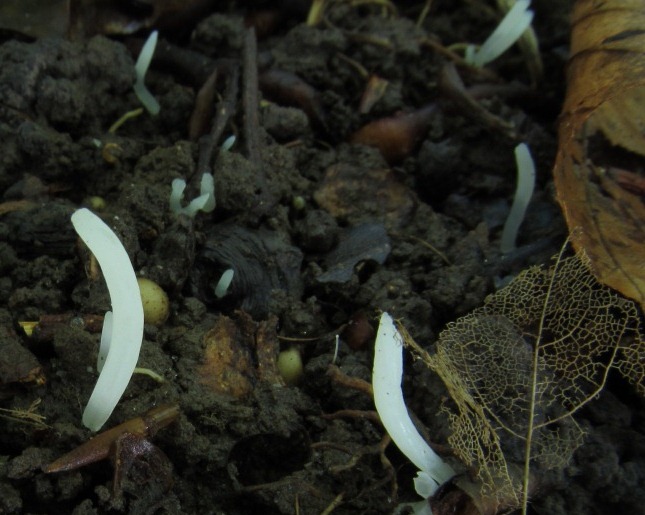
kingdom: Fungi
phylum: Basidiomycota
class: Agaricomycetes
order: Agaricales
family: Clavariaceae
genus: Clavaria
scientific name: Clavaria falcata
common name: hvid køllesvamp
